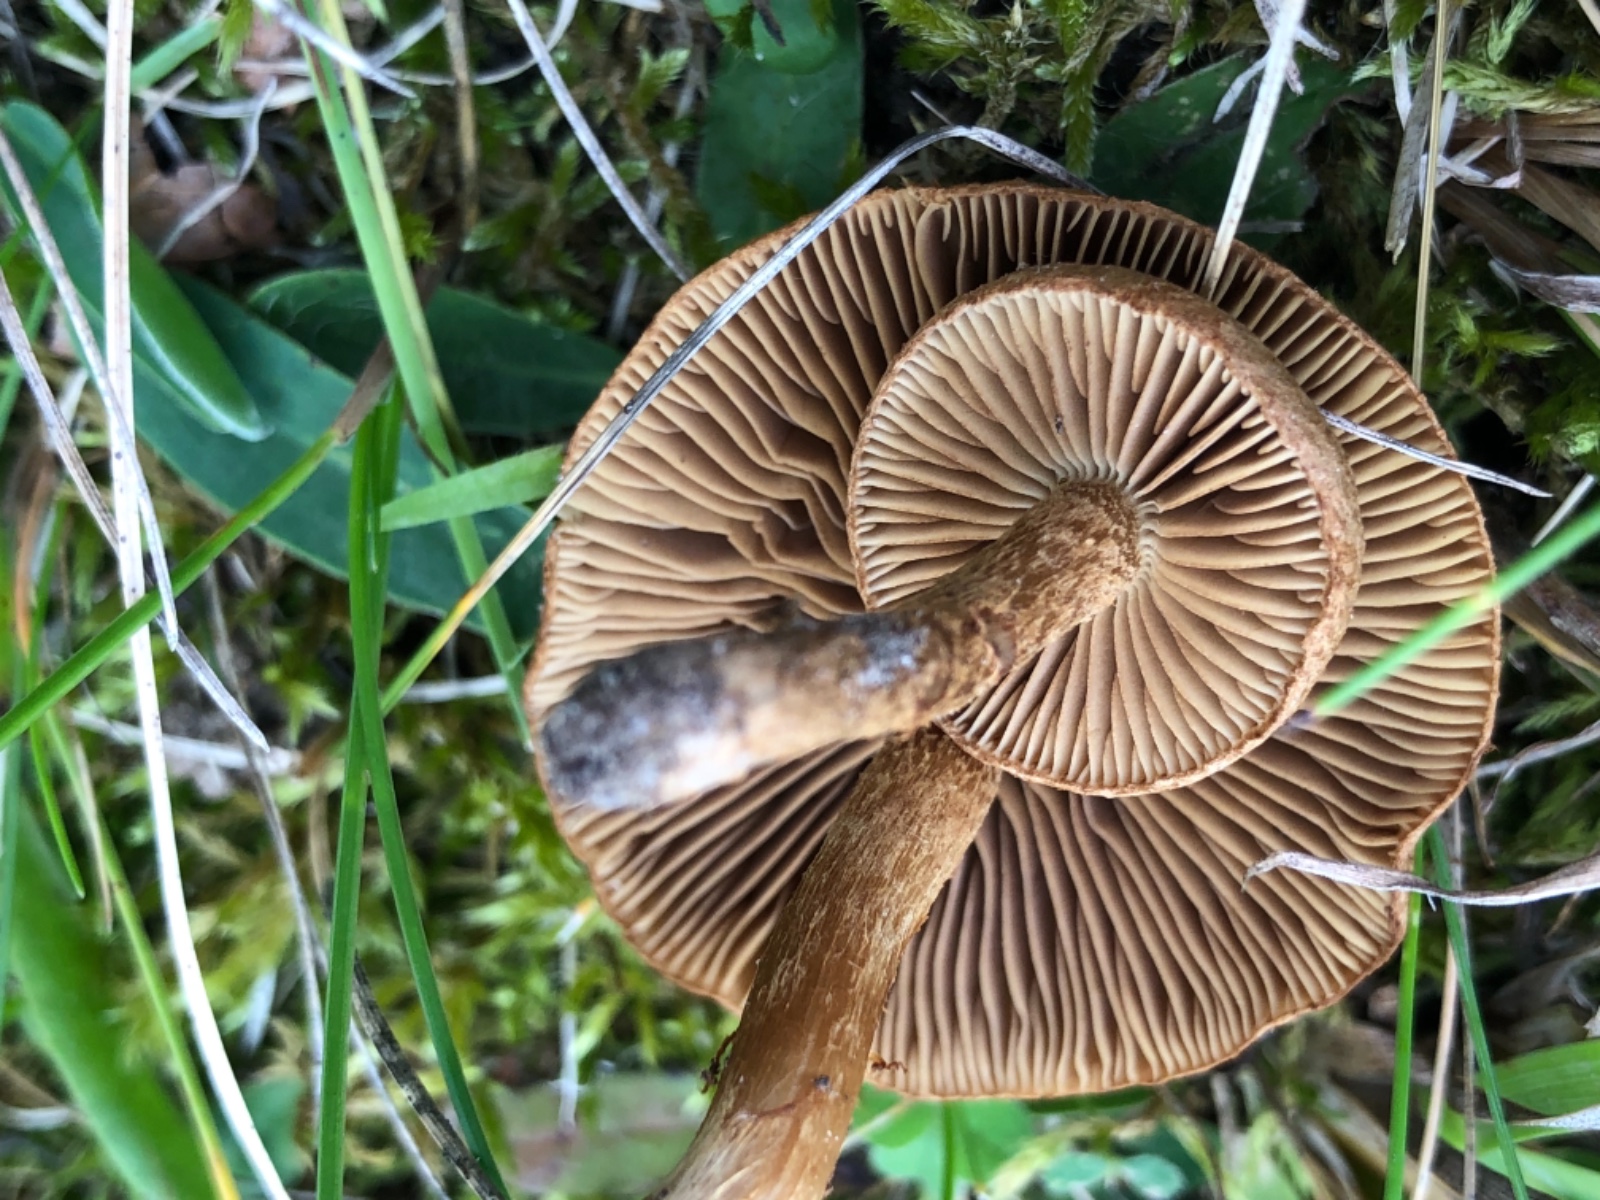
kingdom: Fungi
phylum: Basidiomycota
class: Agaricomycetes
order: Agaricales
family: Inocybaceae
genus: Mallocybe
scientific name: Mallocybe
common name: Trævlhat
